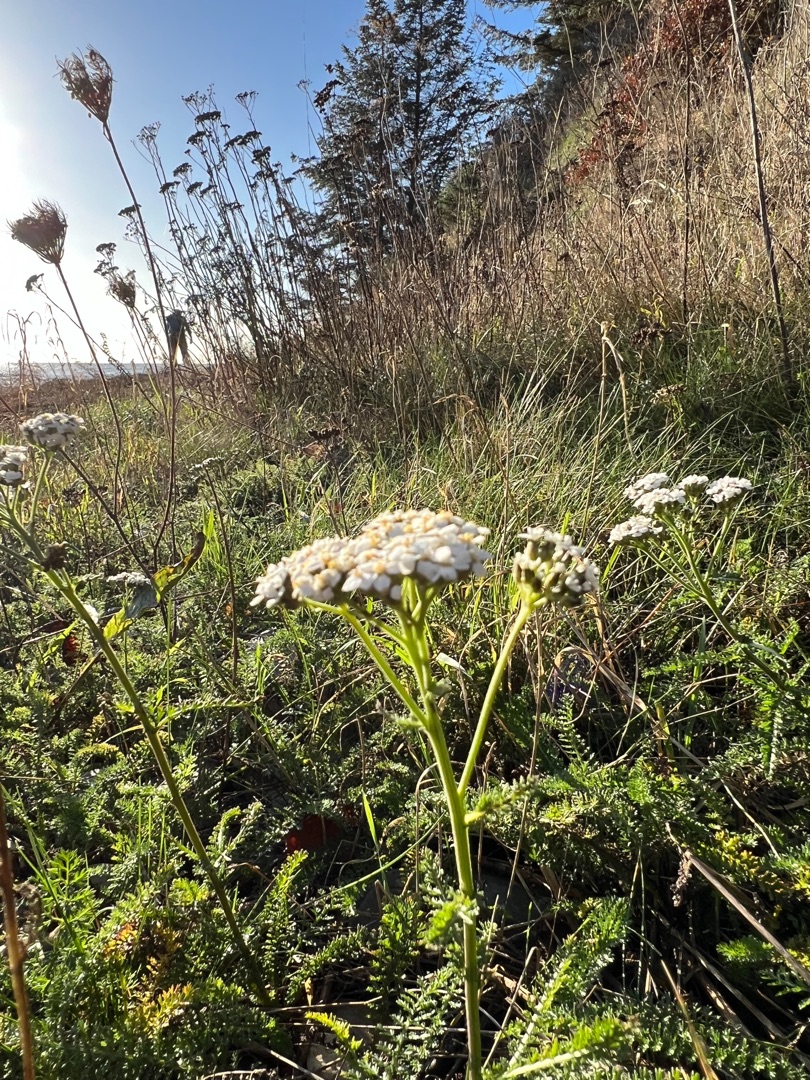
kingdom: Plantae
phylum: Tracheophyta
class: Magnoliopsida
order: Asterales
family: Asteraceae
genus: Achillea
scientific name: Achillea millefolium
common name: Almindelig røllike
